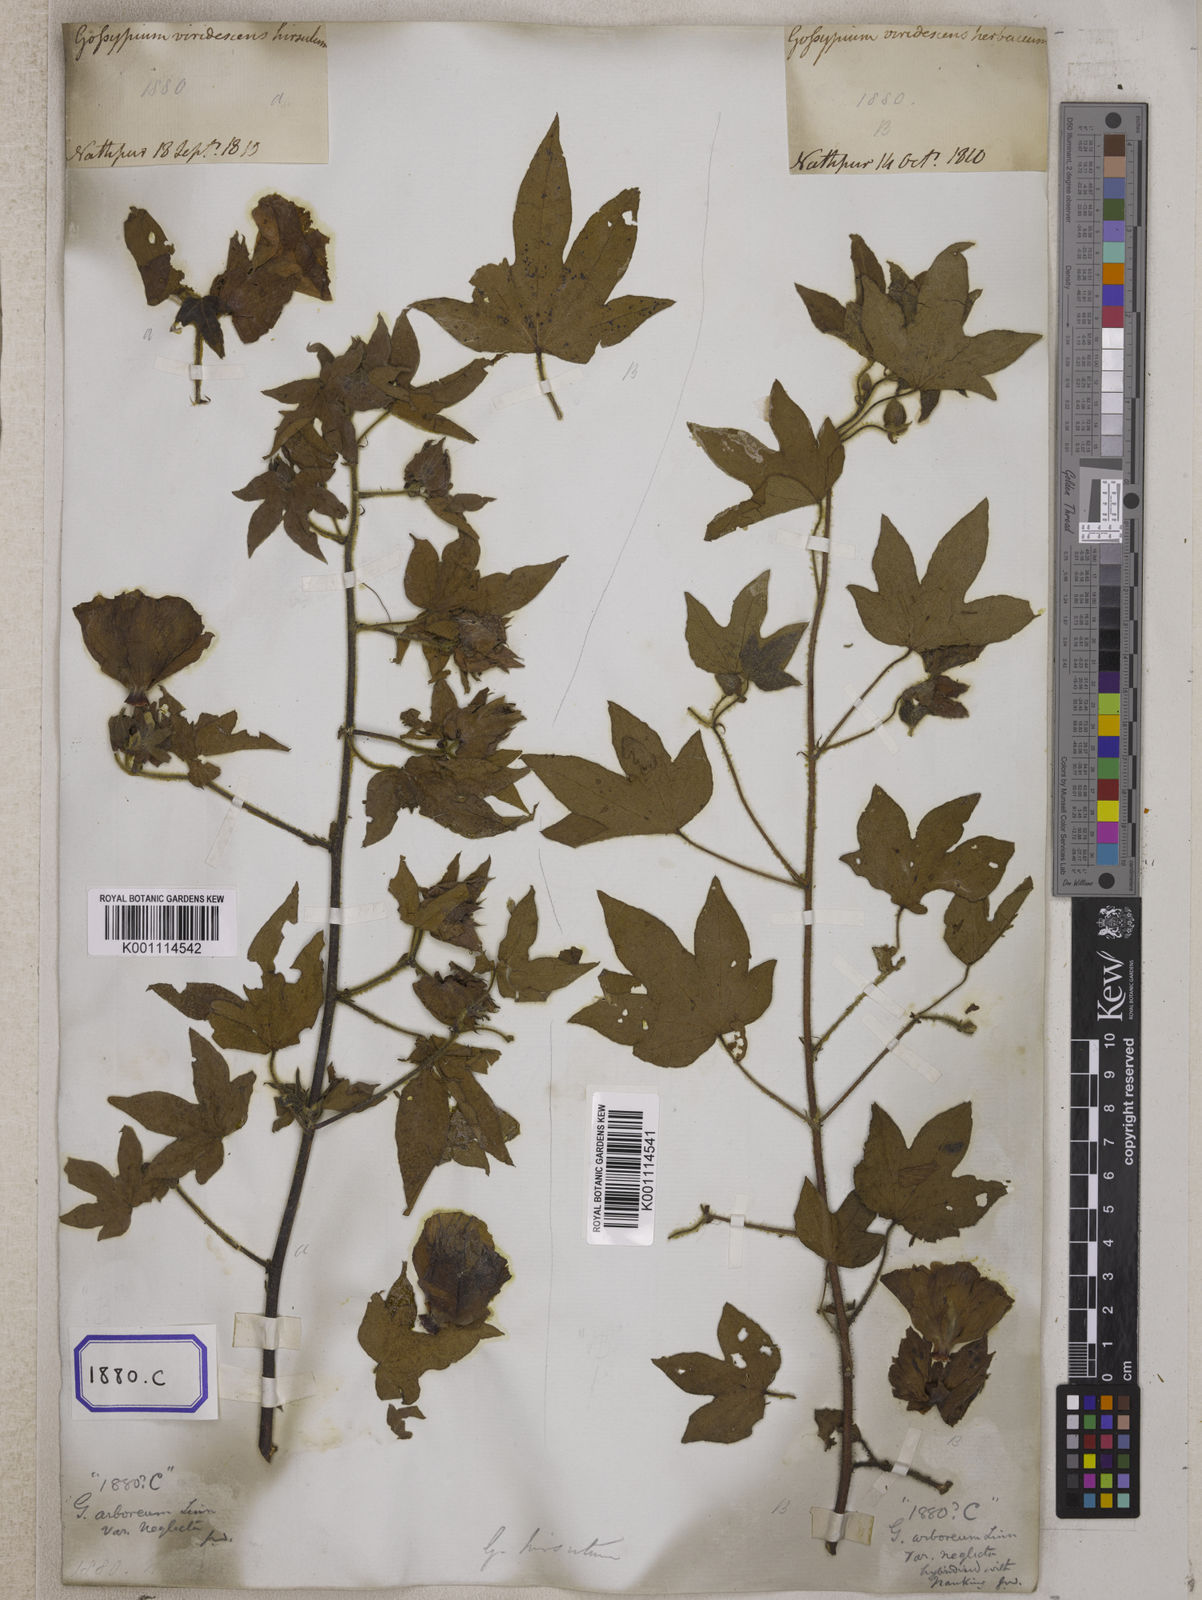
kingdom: Plantae
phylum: Tracheophyta
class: Magnoliopsida
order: Malvales
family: Malvaceae
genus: Gossypium
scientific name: Gossypium herbaceum
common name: Levant cotton
